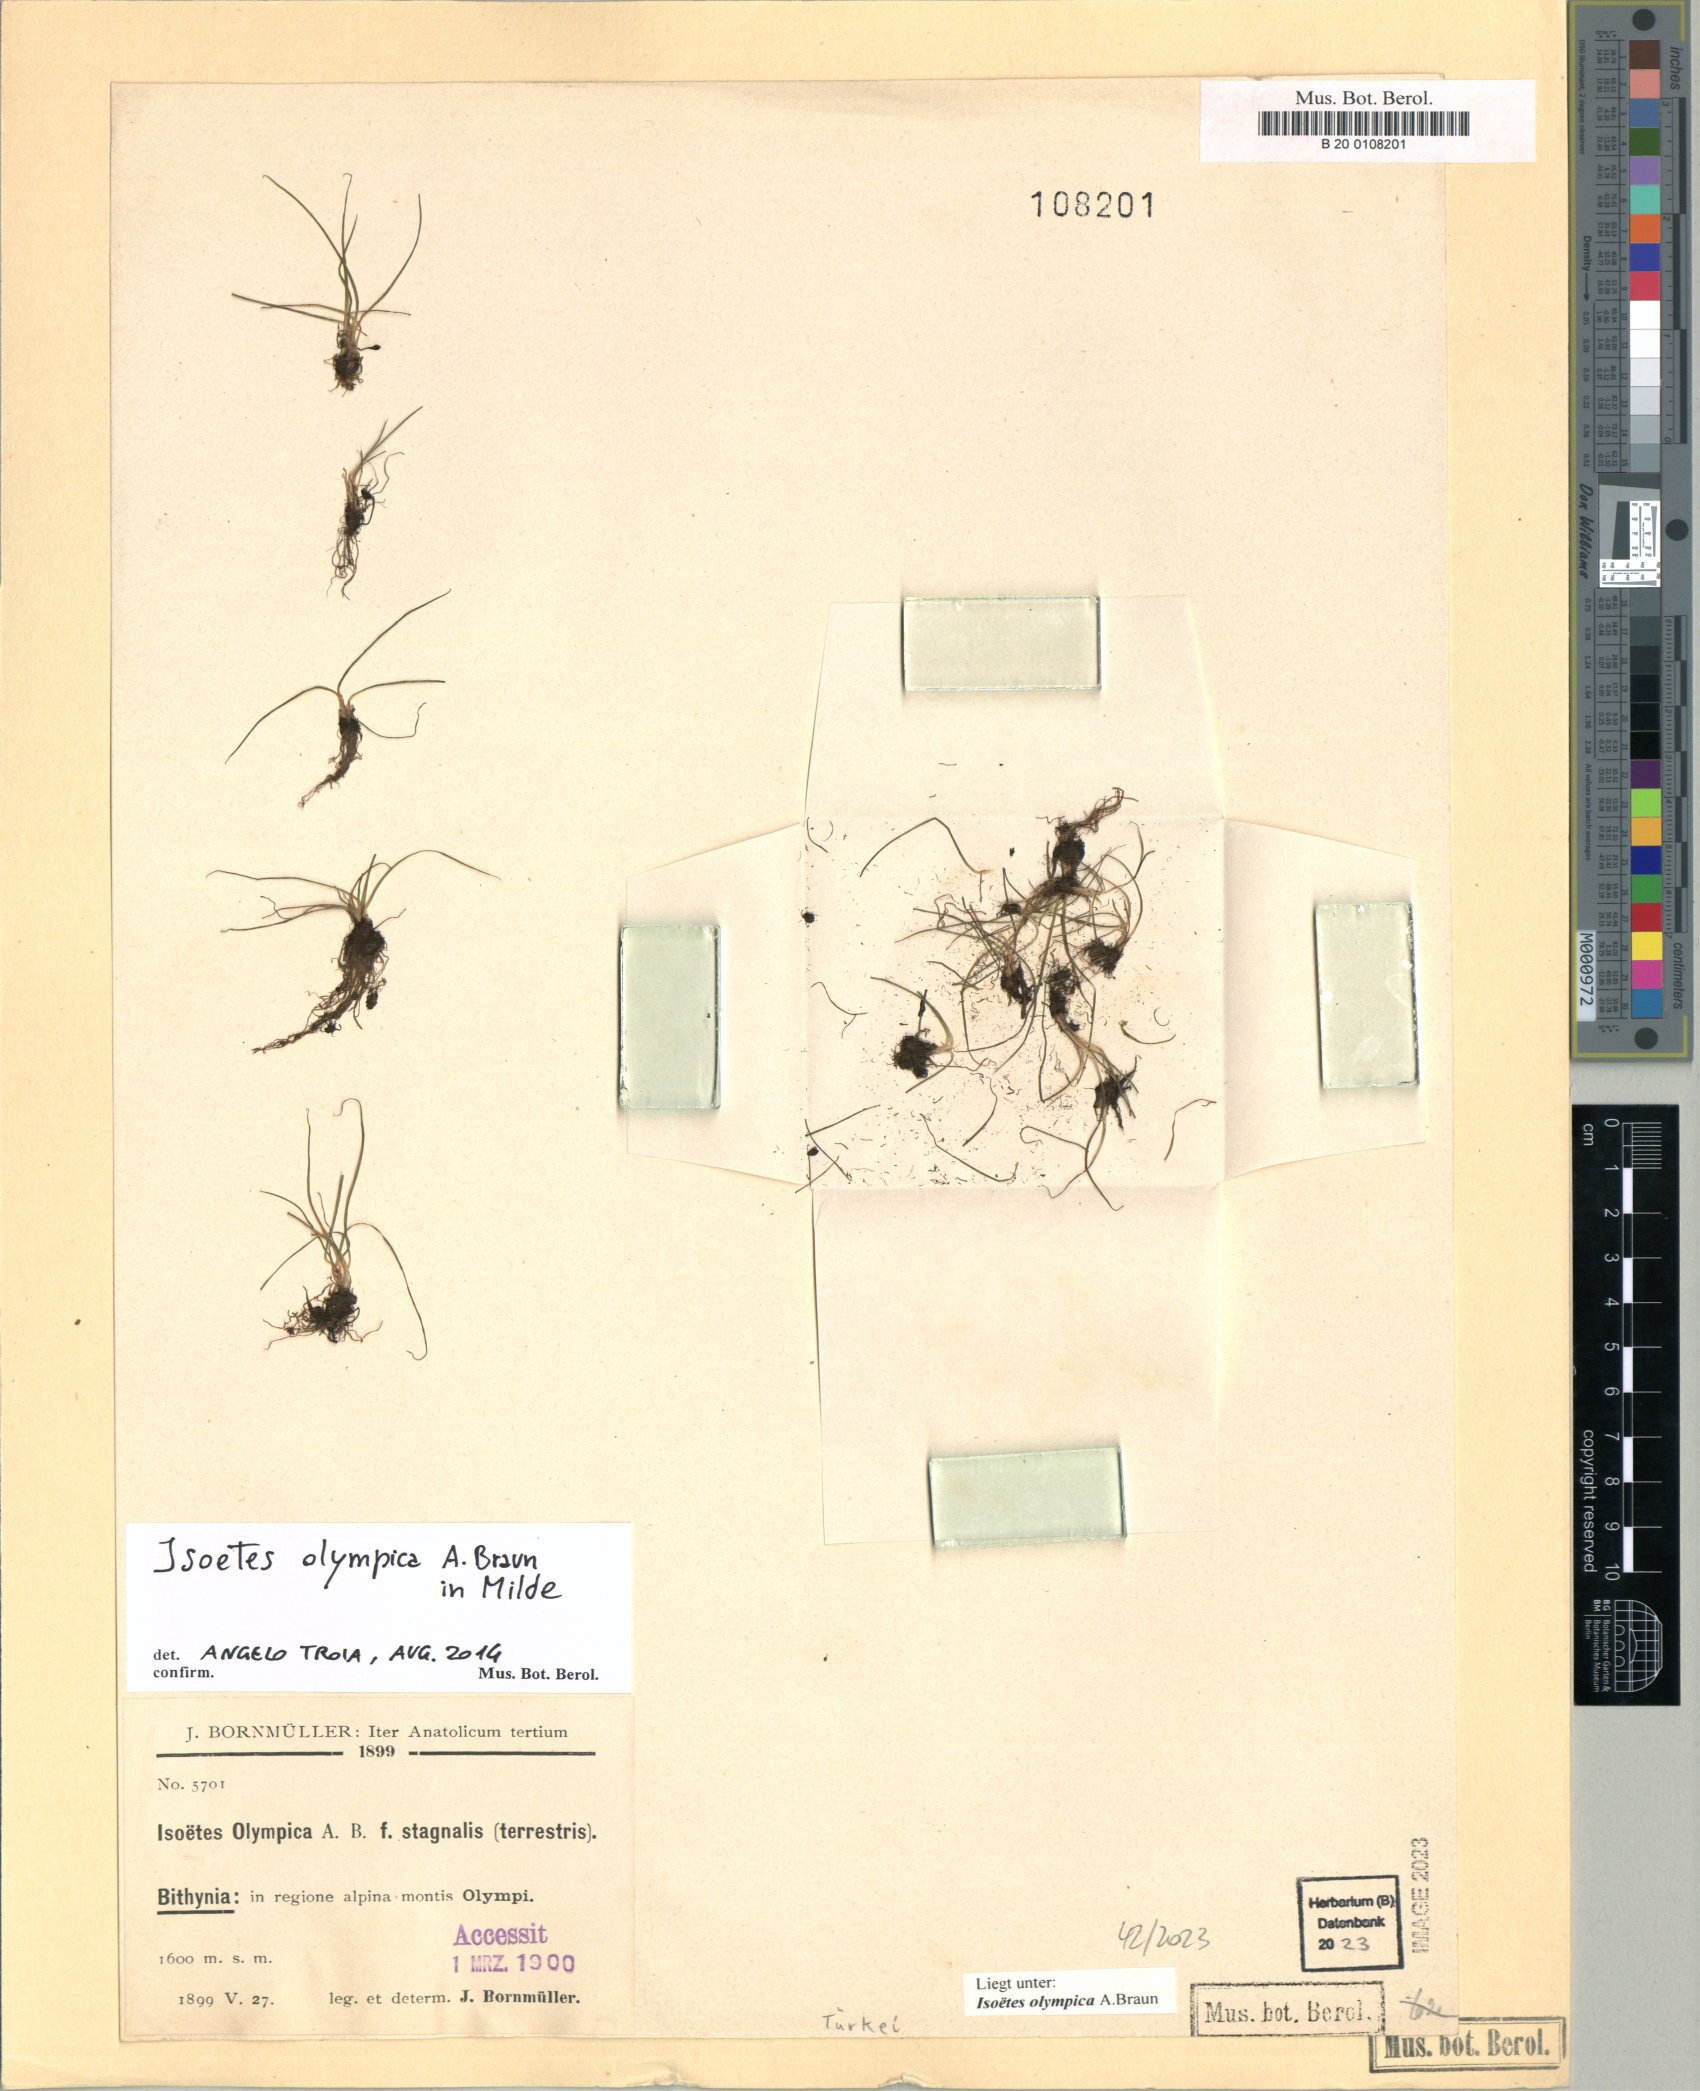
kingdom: Plantae
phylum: Tracheophyta
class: Lycopodiopsida
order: Isoetales
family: Isoetaceae
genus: Isoetes
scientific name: Isoetes olympica
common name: Olympic quillwort
